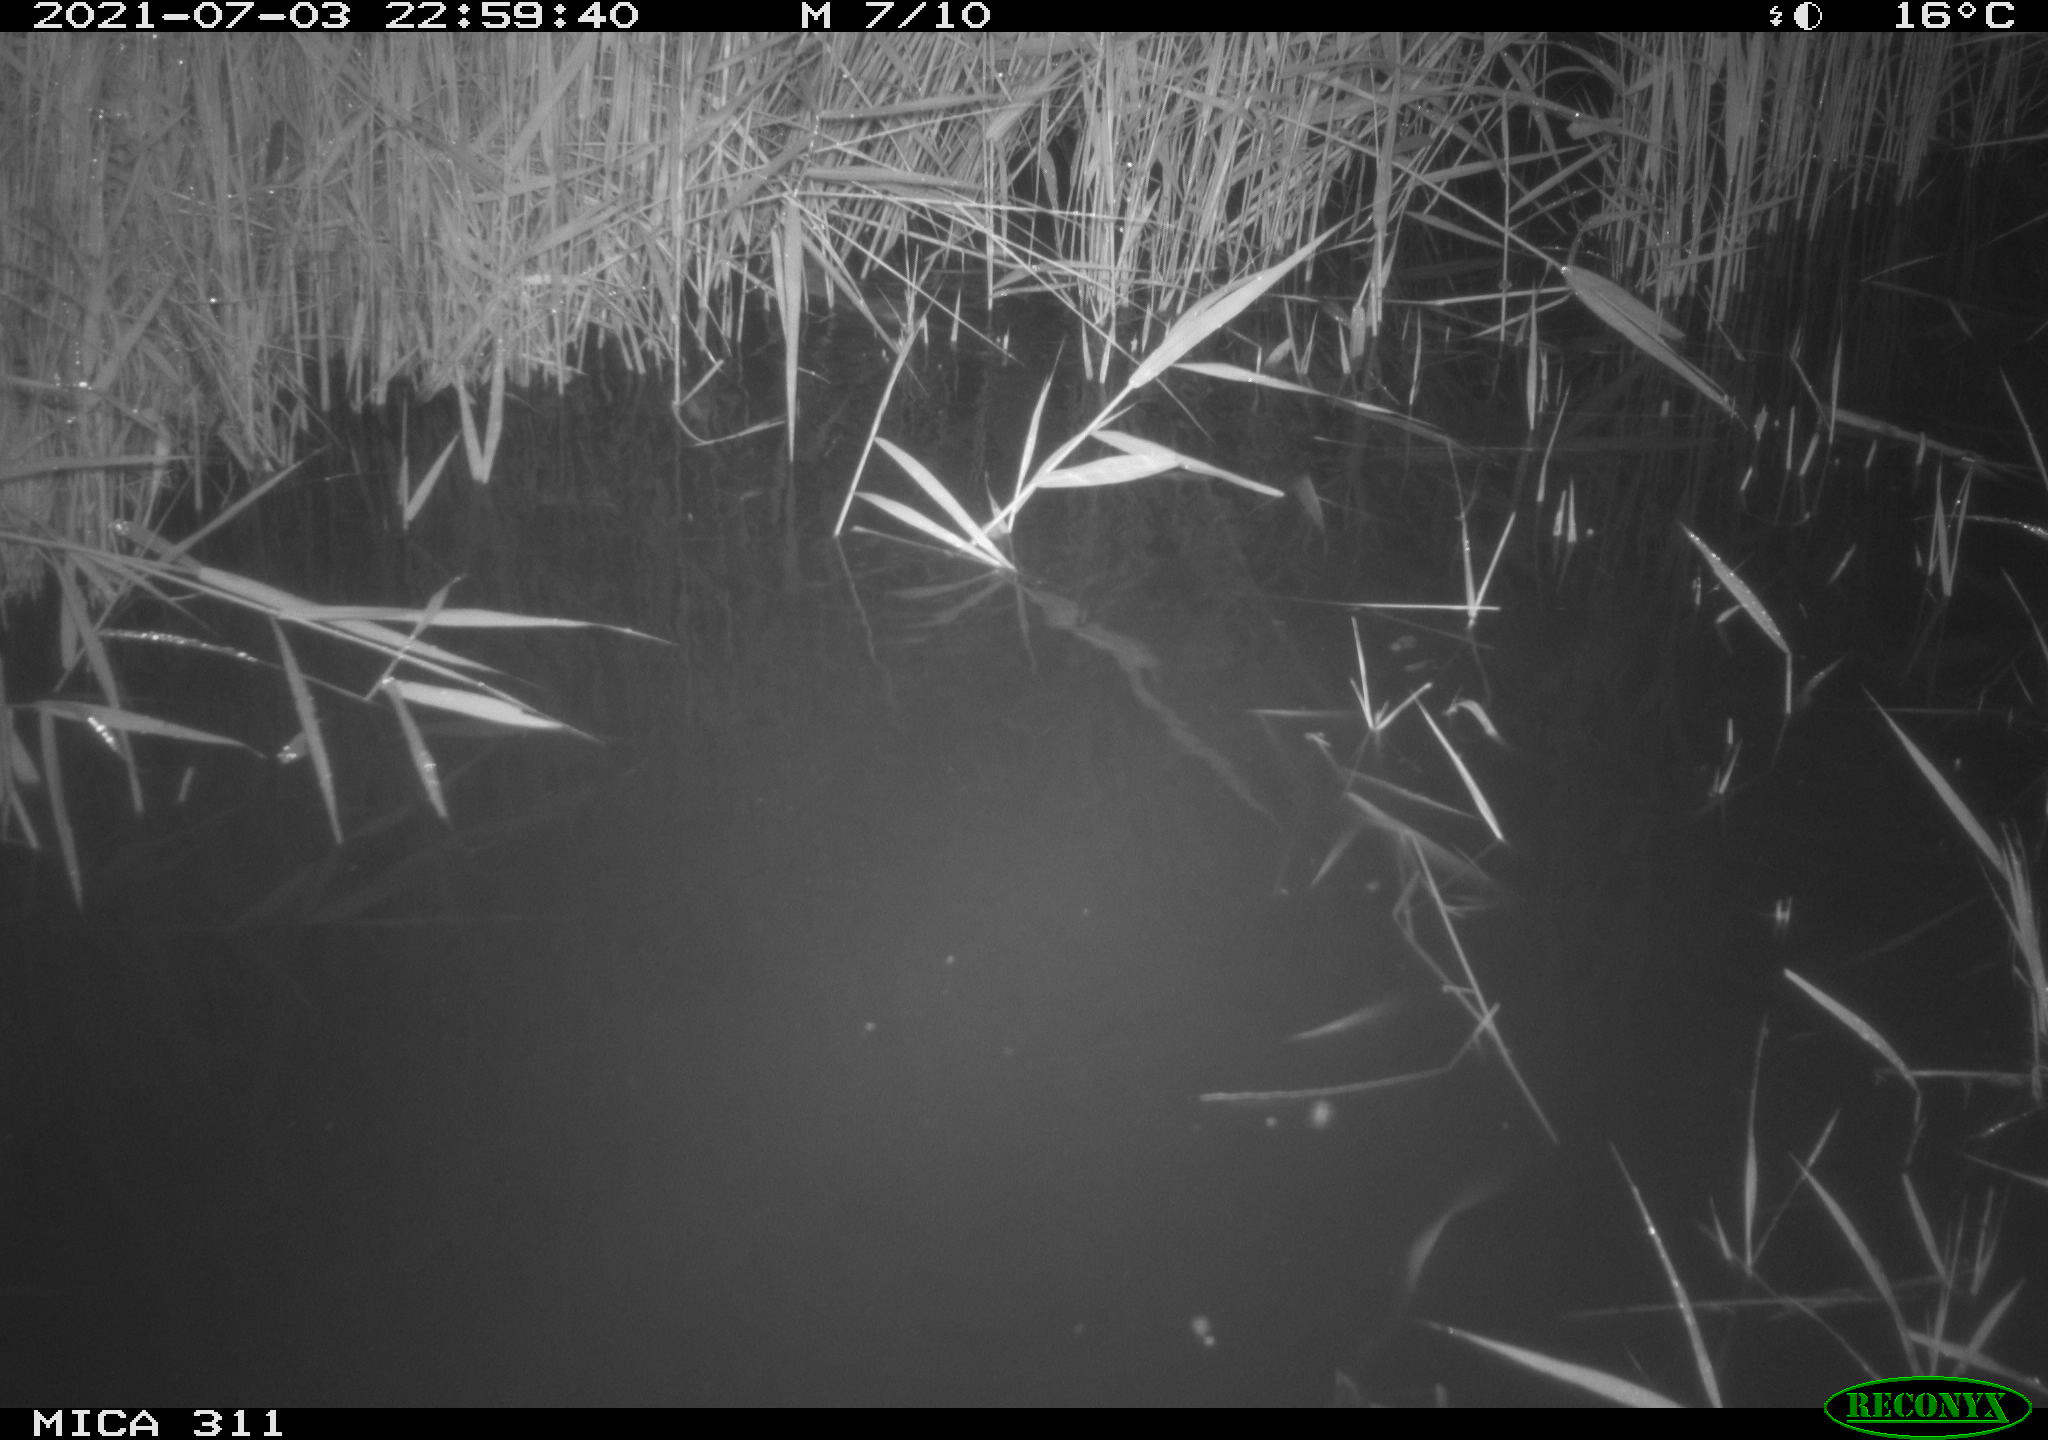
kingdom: Animalia
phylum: Chordata
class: Mammalia
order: Rodentia
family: Muridae
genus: Rattus
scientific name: Rattus norvegicus
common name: Brown rat
